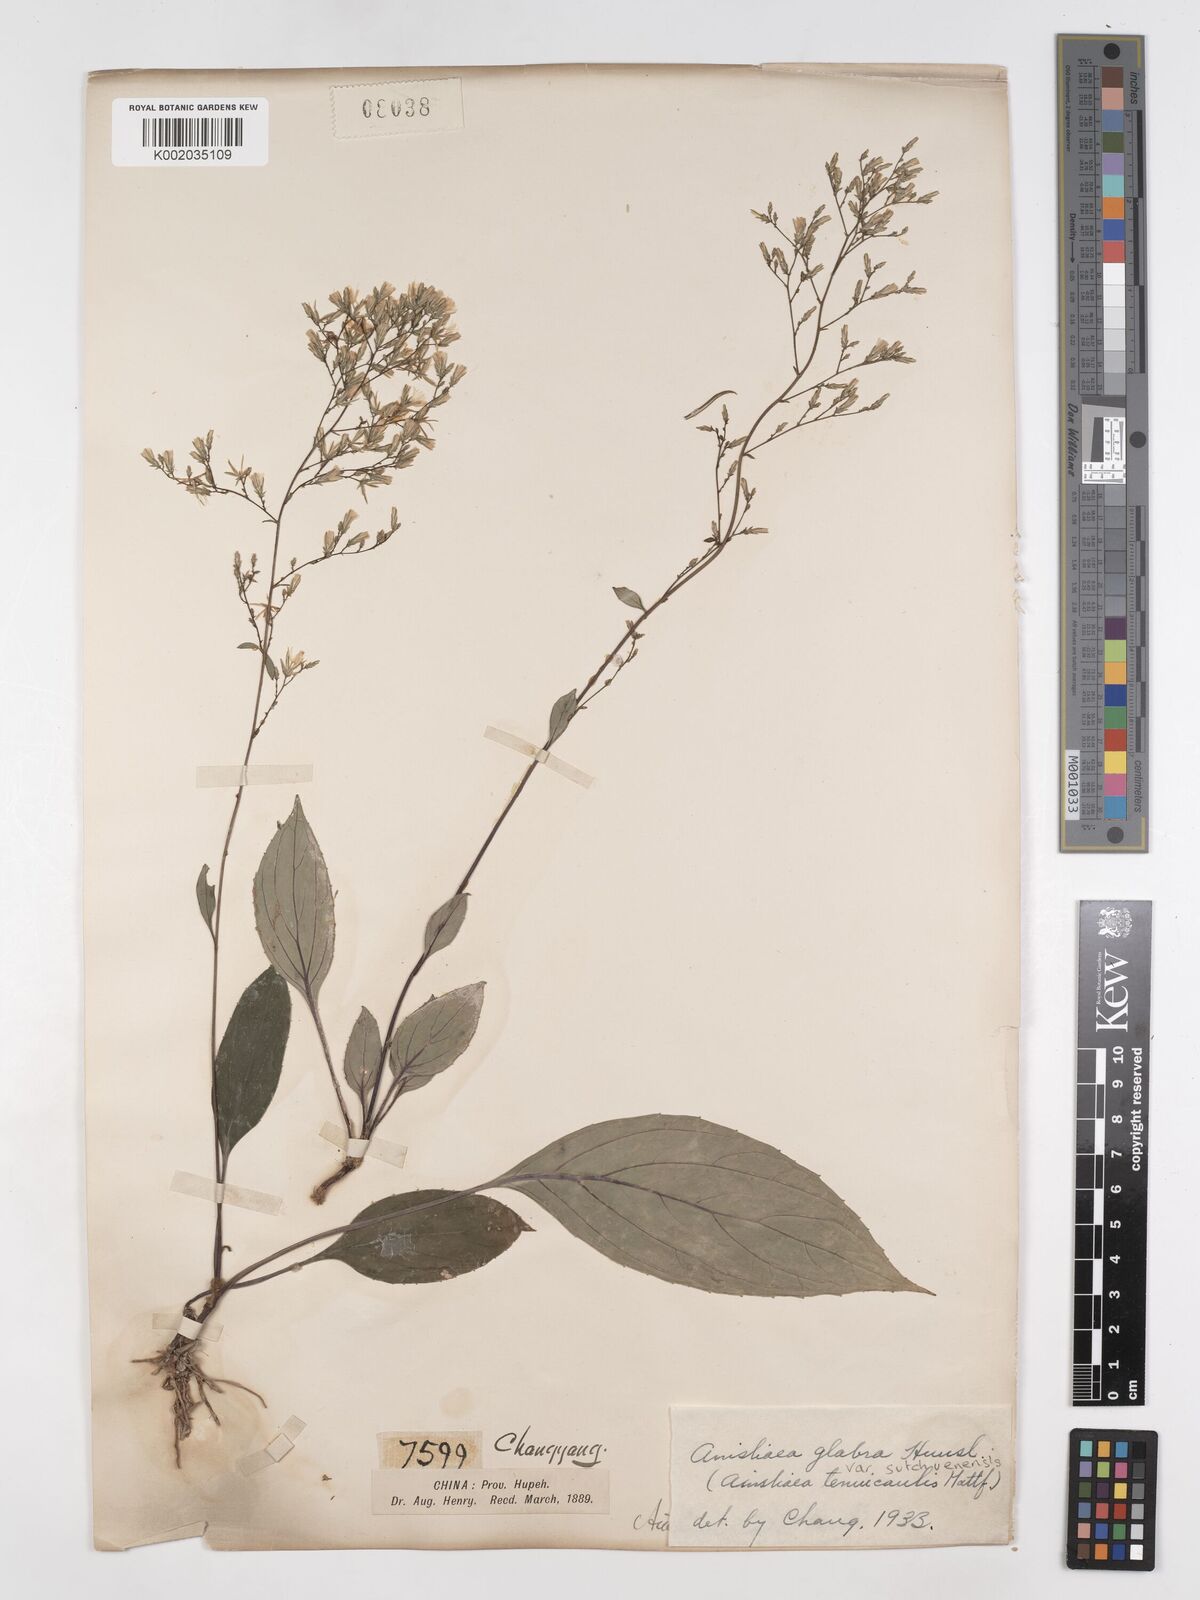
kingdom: Plantae
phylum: Tracheophyta
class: Magnoliopsida
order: Asterales
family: Asteraceae
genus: Ainsliaea
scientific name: Ainsliaea glabra
